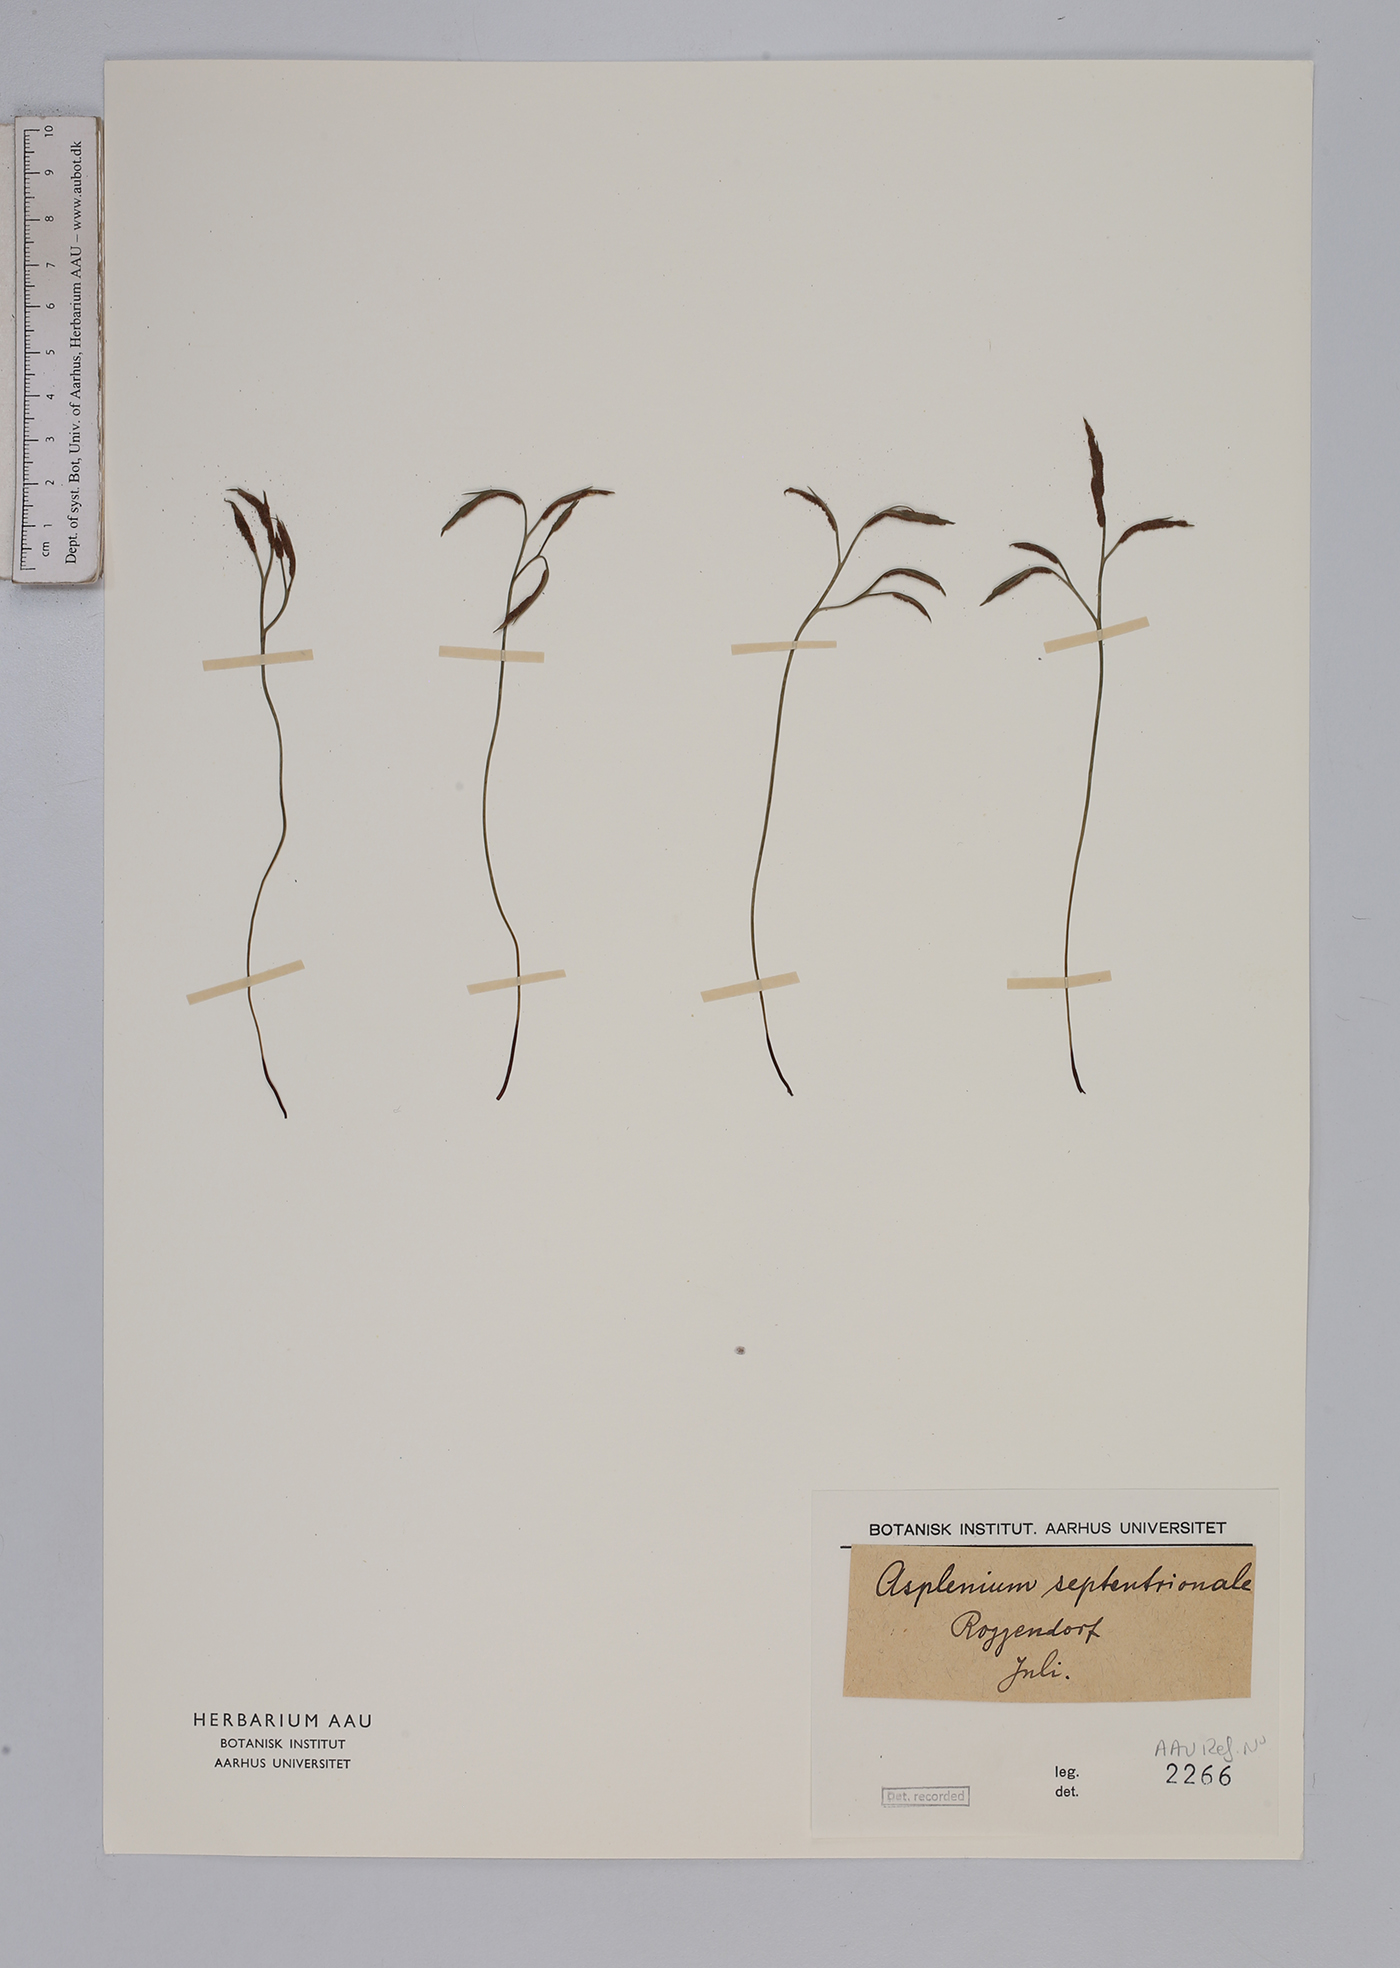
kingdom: Plantae
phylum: Tracheophyta
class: Polypodiopsida
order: Polypodiales
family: Aspleniaceae
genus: Asplenium
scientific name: Asplenium septentrionale
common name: Forked spleenwort
